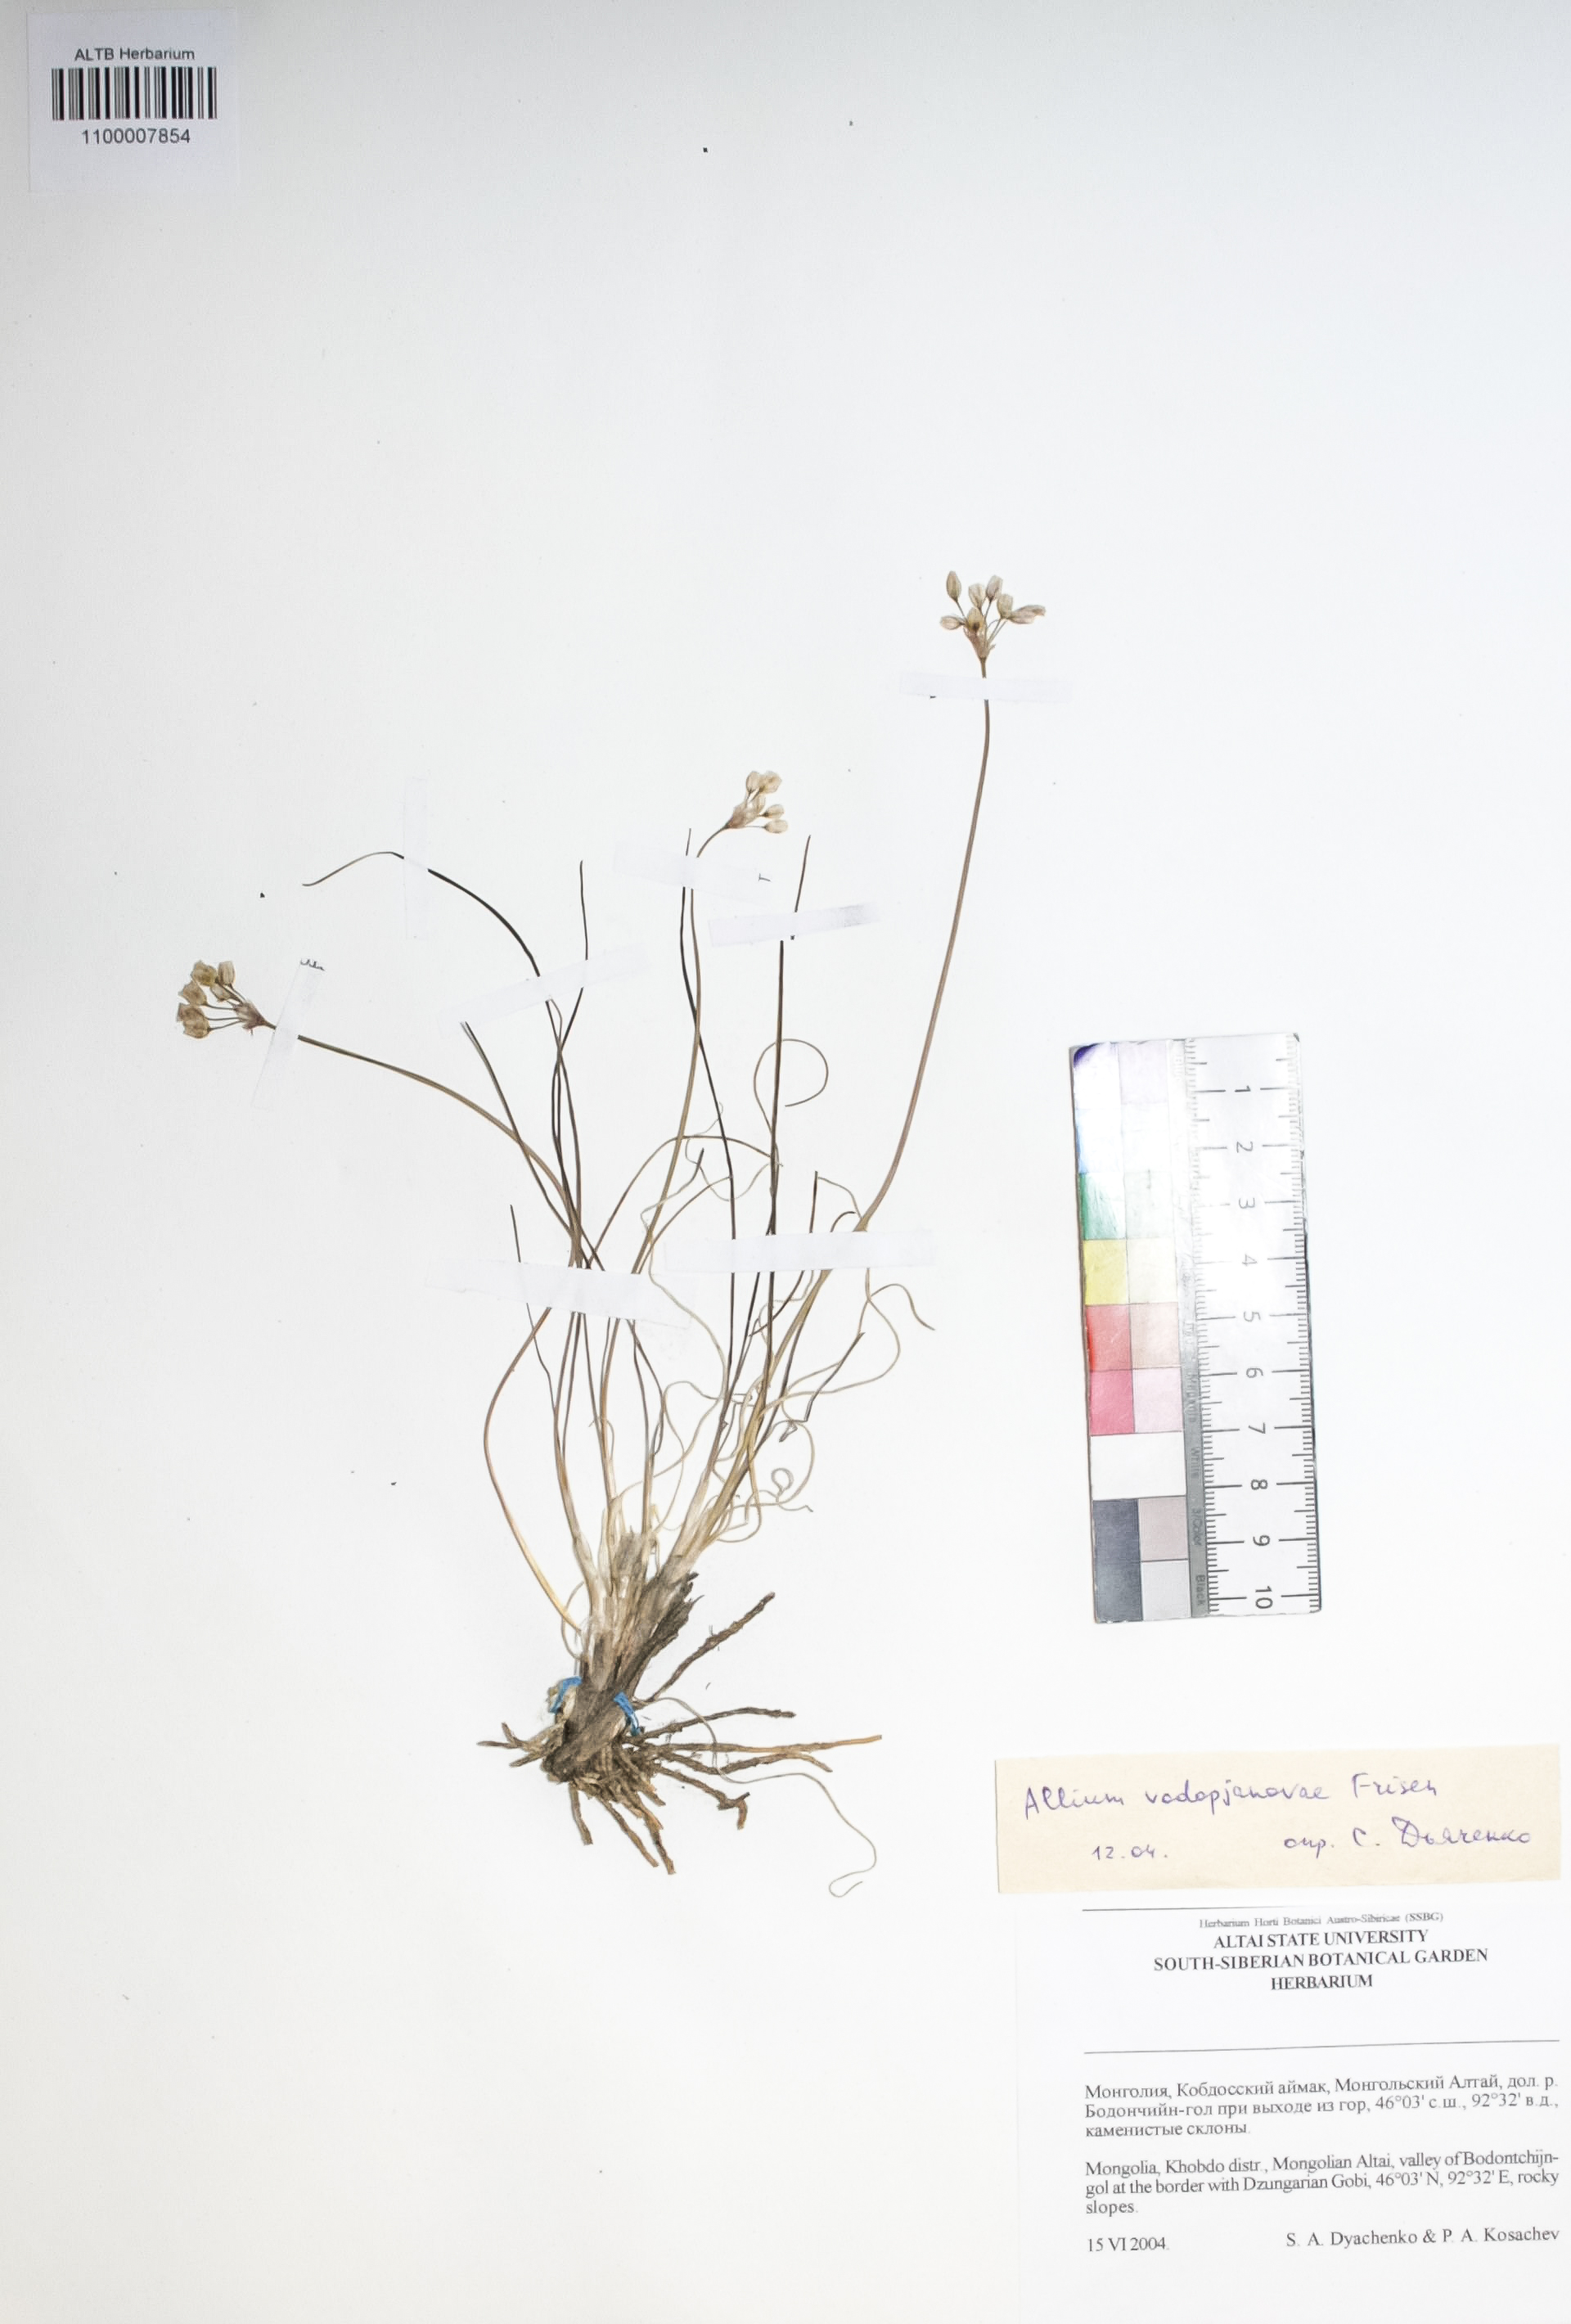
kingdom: Plantae
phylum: Tracheophyta
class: Liliopsida
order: Asparagales
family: Amaryllidaceae
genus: Allium
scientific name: Allium vodopjanovae
